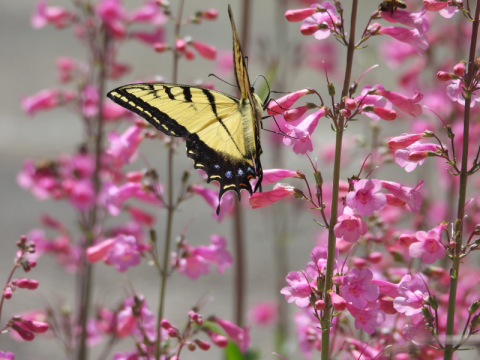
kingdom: Animalia
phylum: Arthropoda
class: Insecta
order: Lepidoptera
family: Papilionidae
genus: Papilio
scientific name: Papilio multicaudata
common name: Two-tailed Swallowtail
